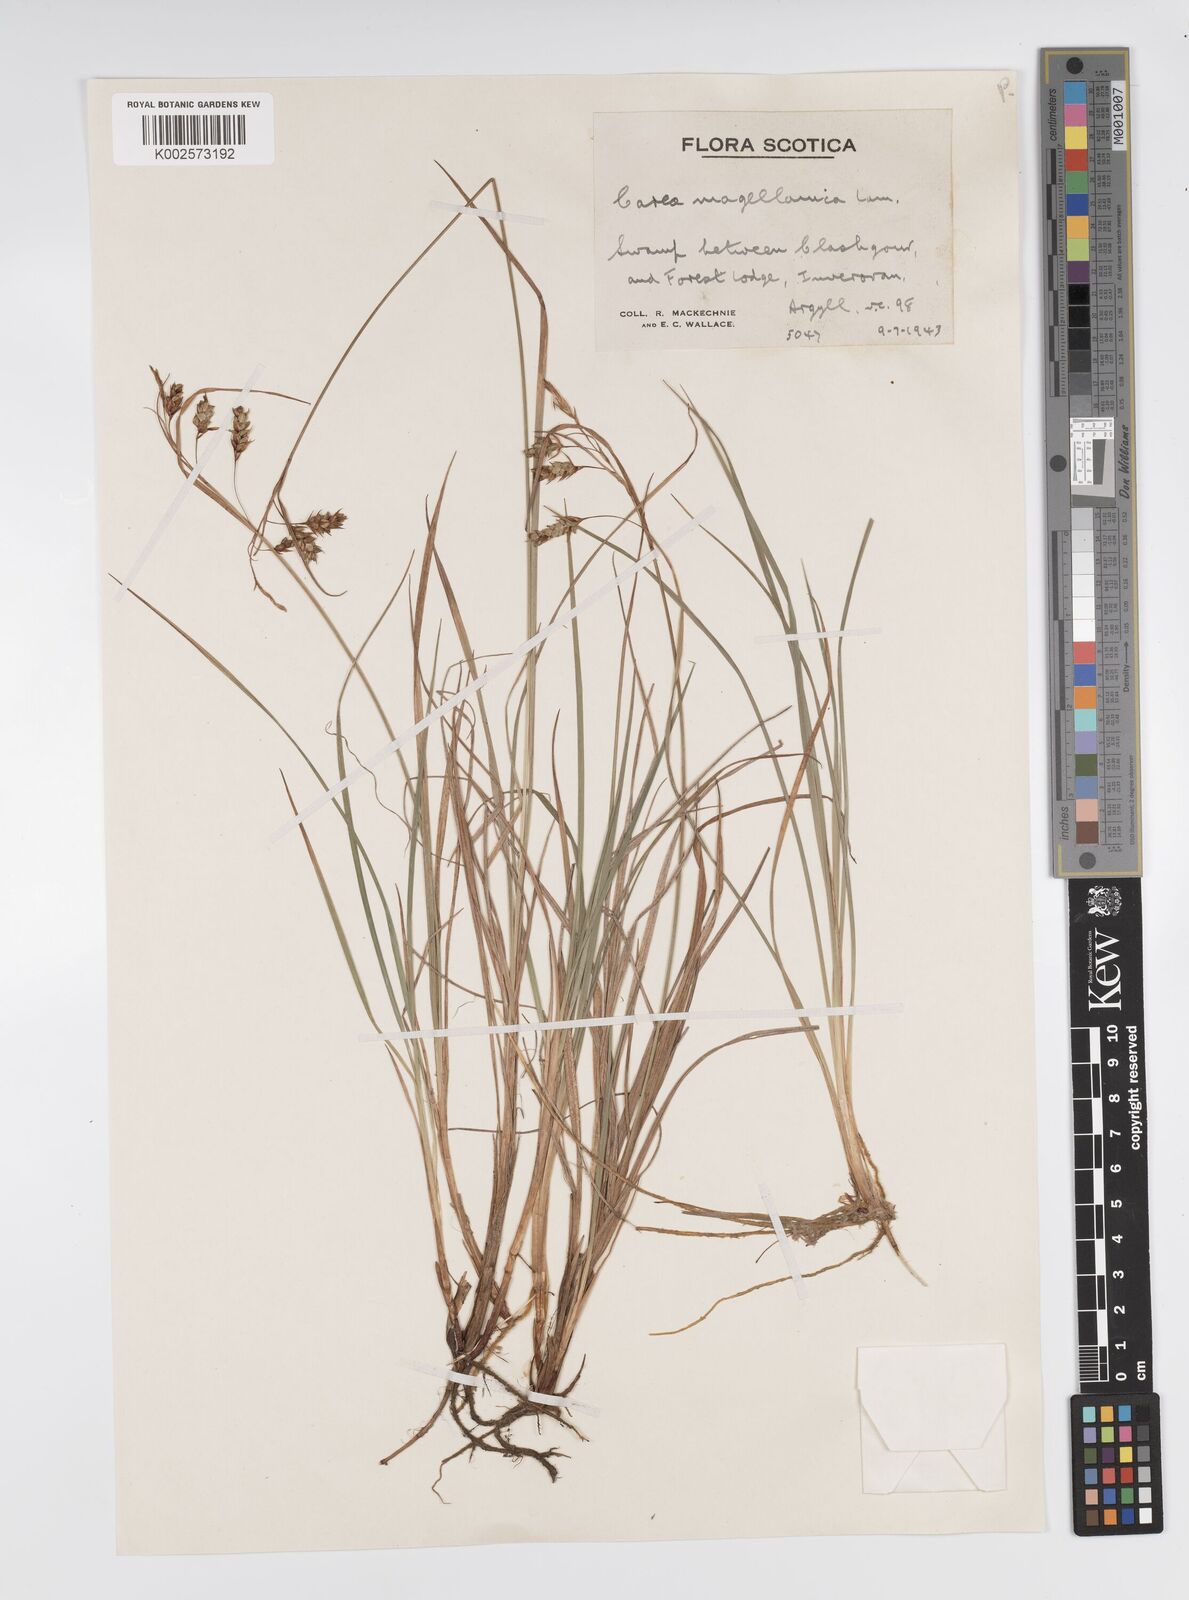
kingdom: Plantae
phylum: Tracheophyta
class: Liliopsida
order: Poales
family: Cyperaceae
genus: Carex
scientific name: Carex magellanica
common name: Bog sedge
